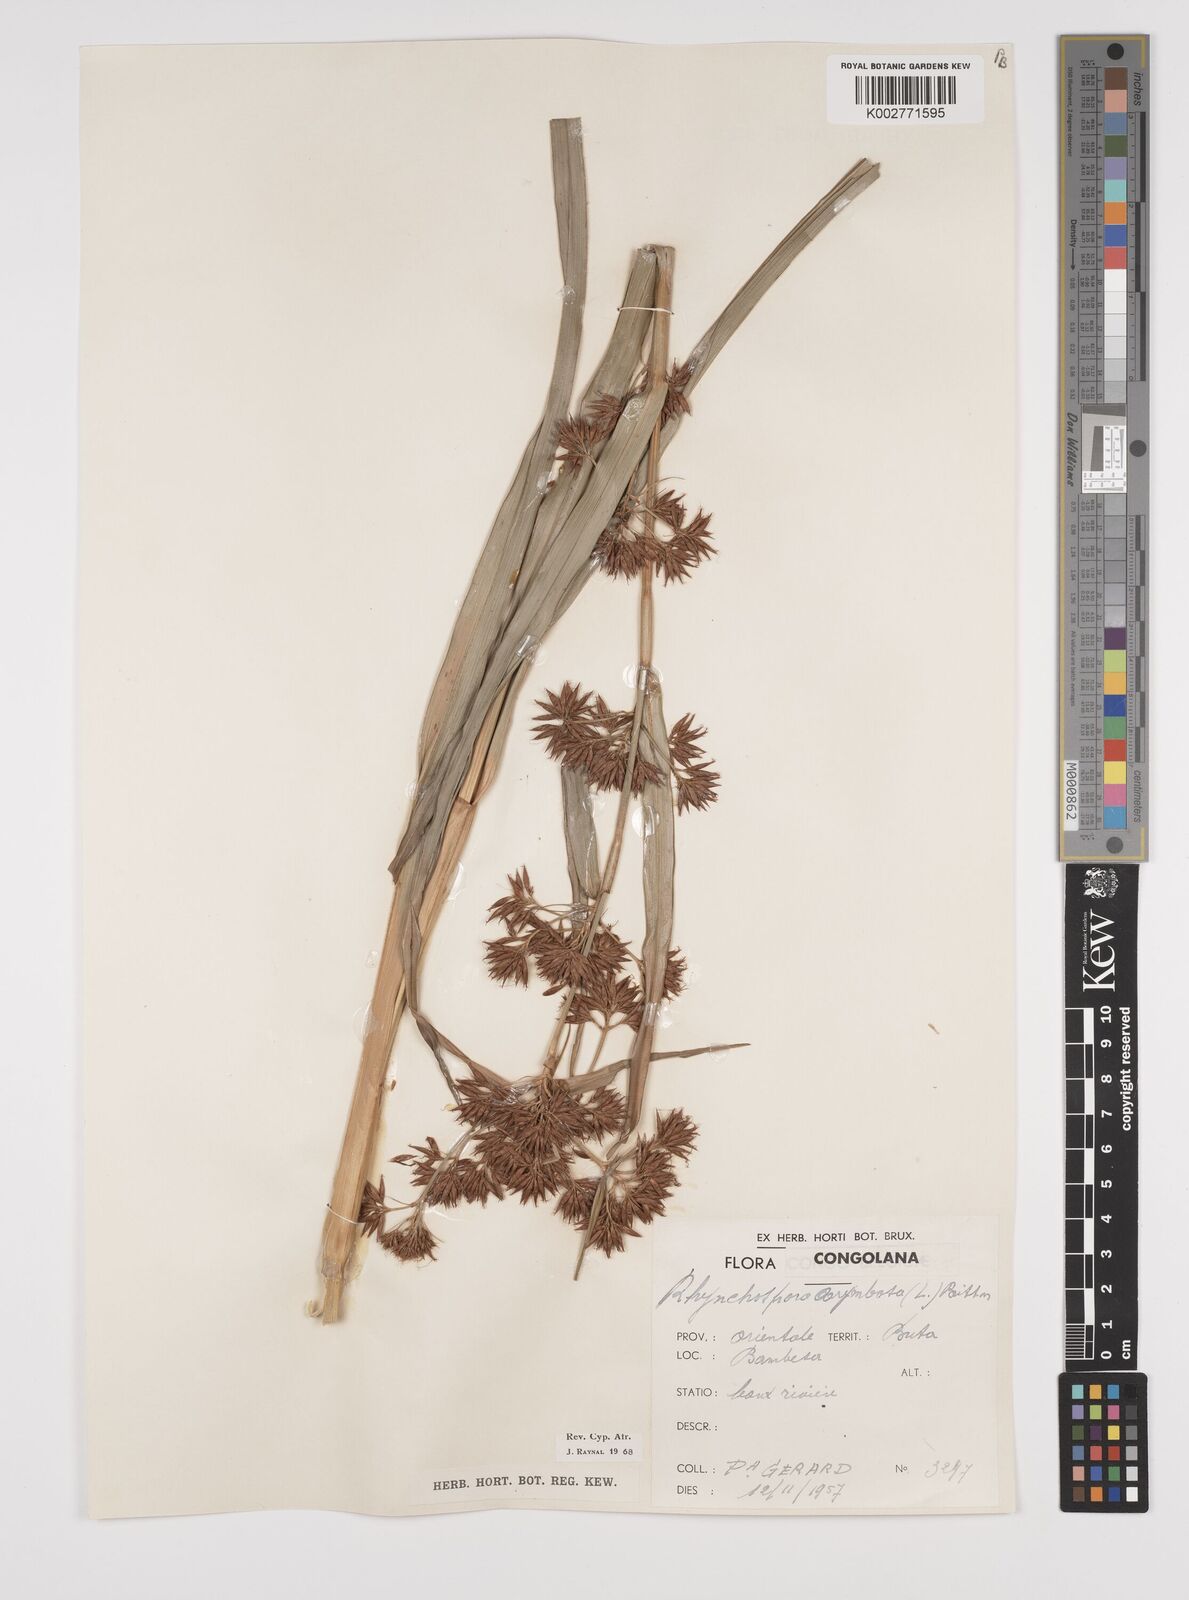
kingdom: Plantae
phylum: Tracheophyta
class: Liliopsida
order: Poales
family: Cyperaceae
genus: Rhynchospora
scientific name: Rhynchospora corymbosa
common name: Golden beak sedge
